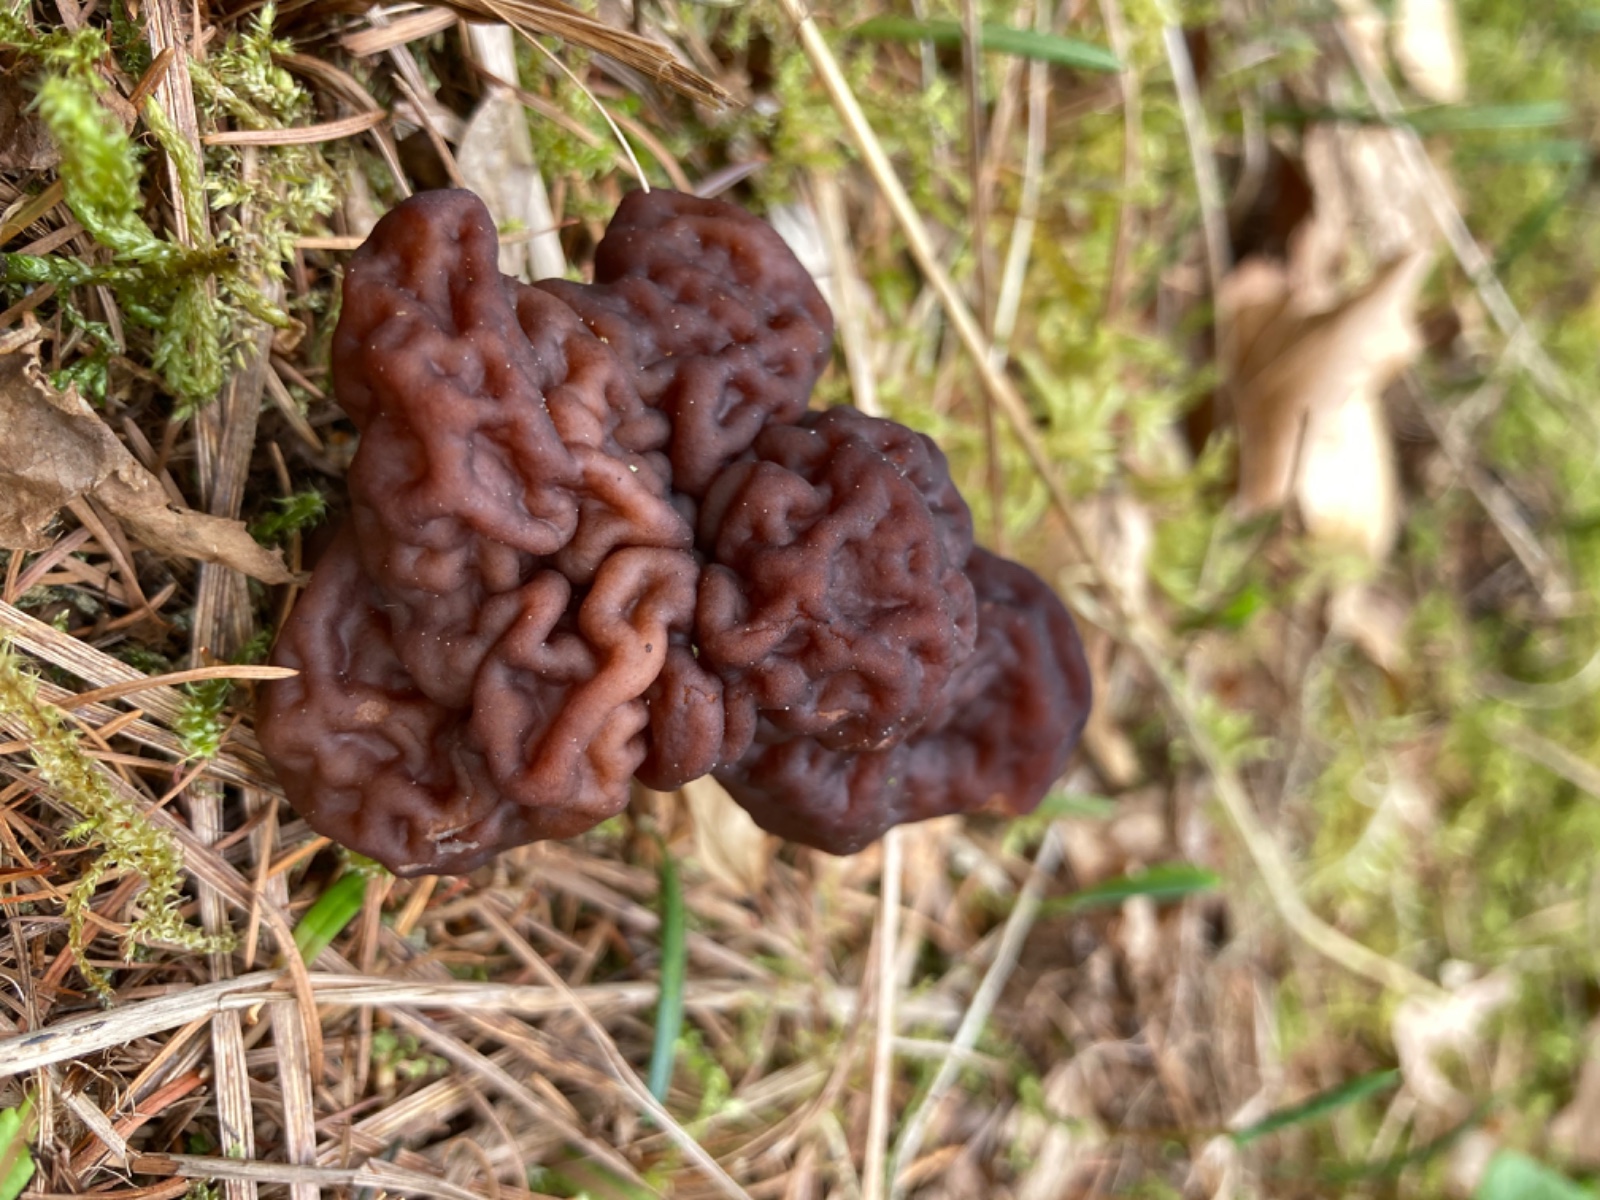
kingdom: Fungi
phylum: Ascomycota
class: Pezizomycetes
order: Pezizales
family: Discinaceae
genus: Gyromitra
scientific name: Gyromitra esculenta
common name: ægte stenmorkel
